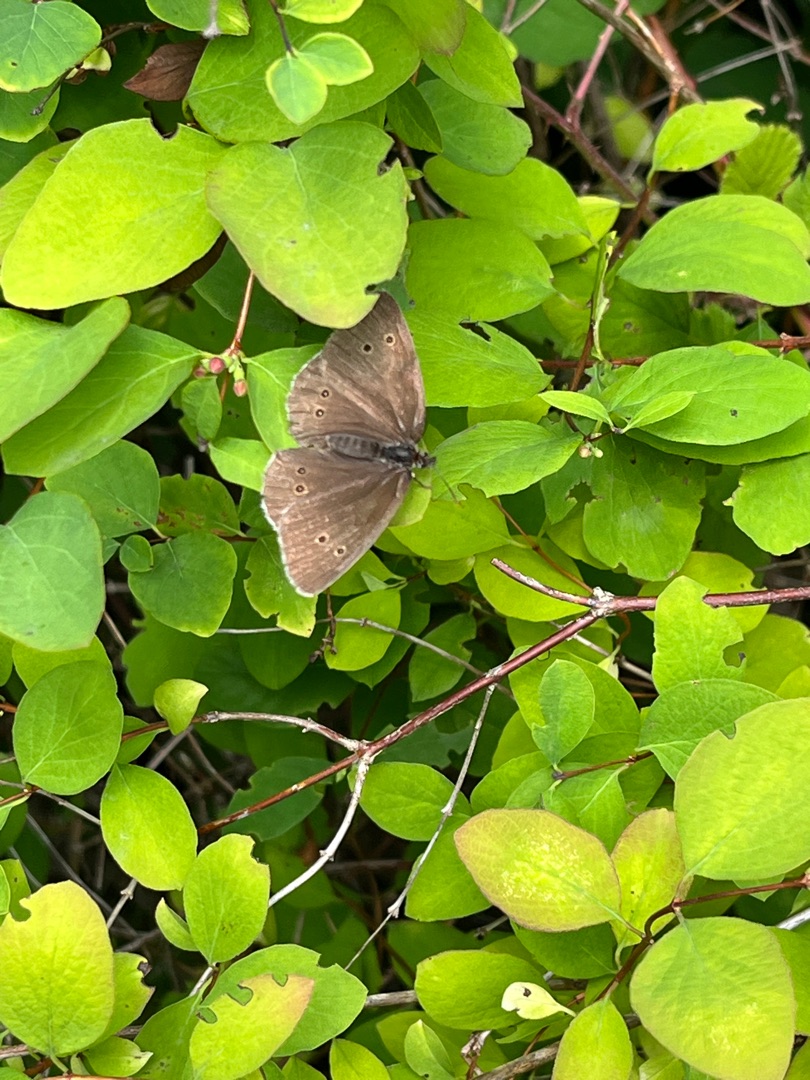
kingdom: Animalia
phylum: Arthropoda
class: Insecta
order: Lepidoptera
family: Nymphalidae
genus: Aphantopus
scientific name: Aphantopus hyperantus
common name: Engrandøje
